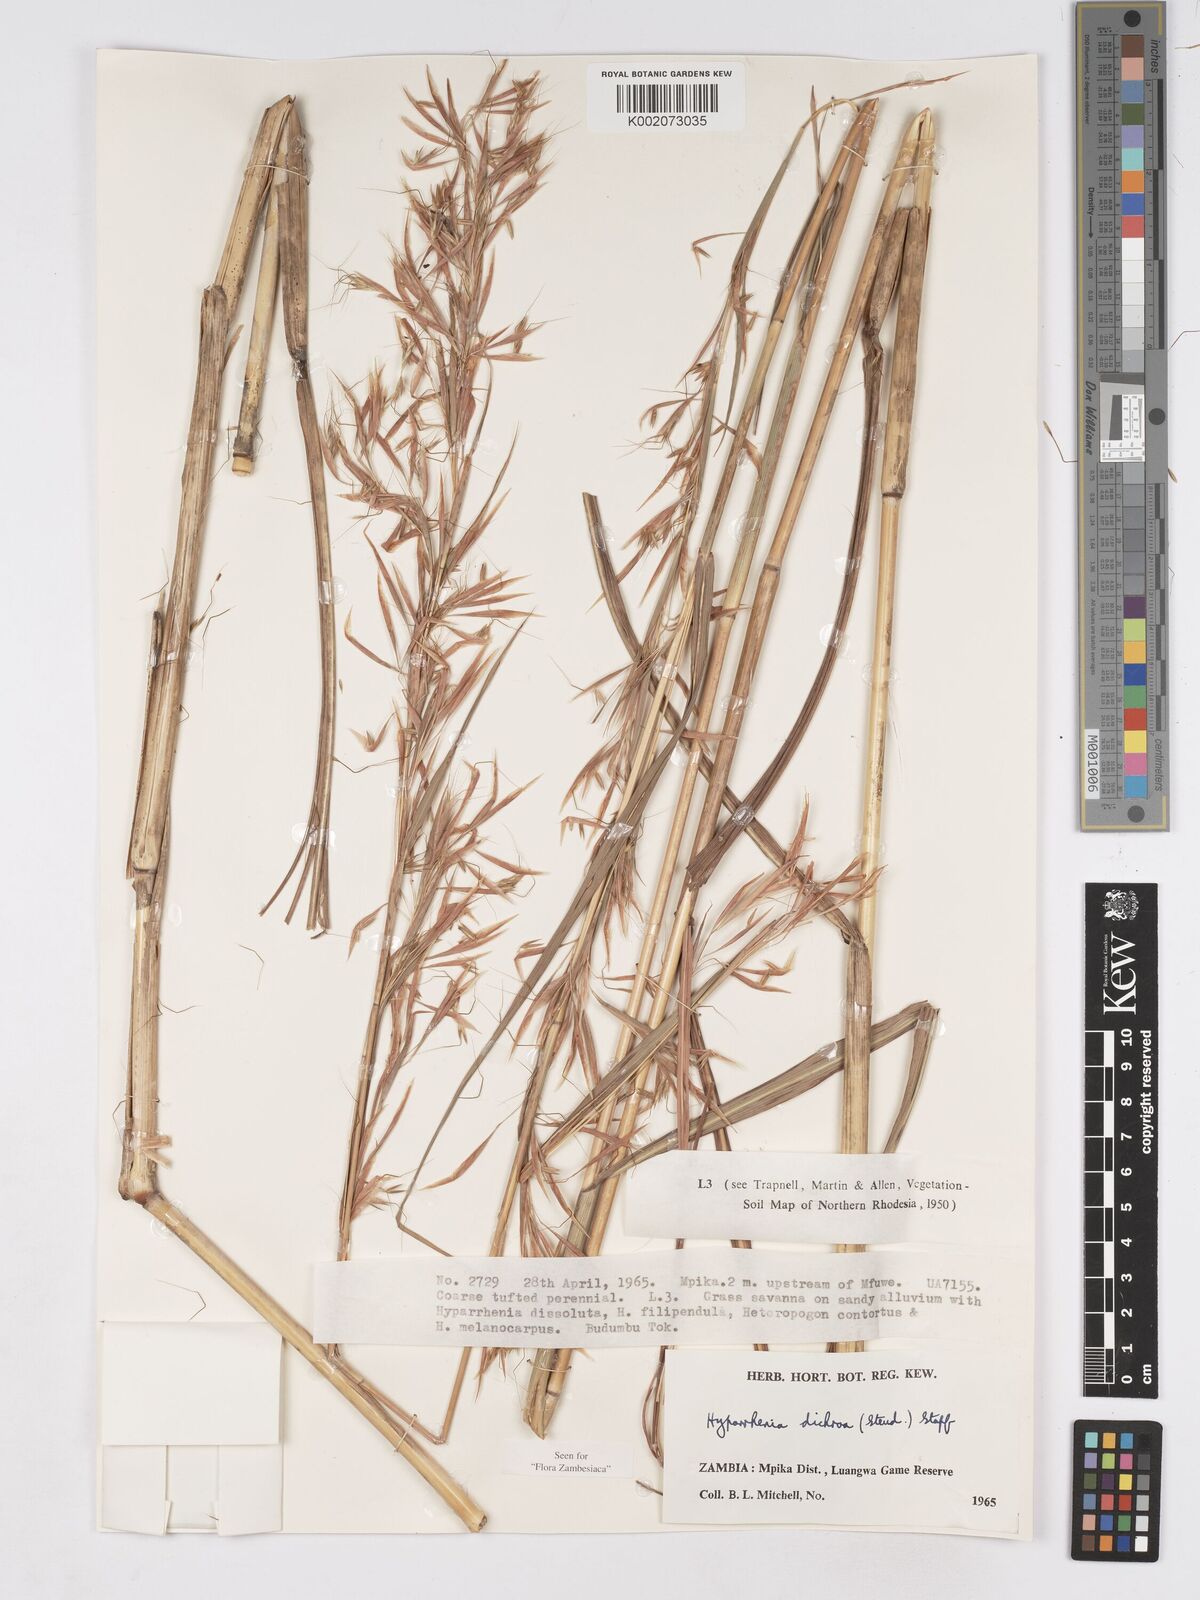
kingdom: Plantae
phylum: Tracheophyta
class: Liliopsida
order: Poales
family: Poaceae
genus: Hyparrhenia
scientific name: Hyparrhenia dichroa
